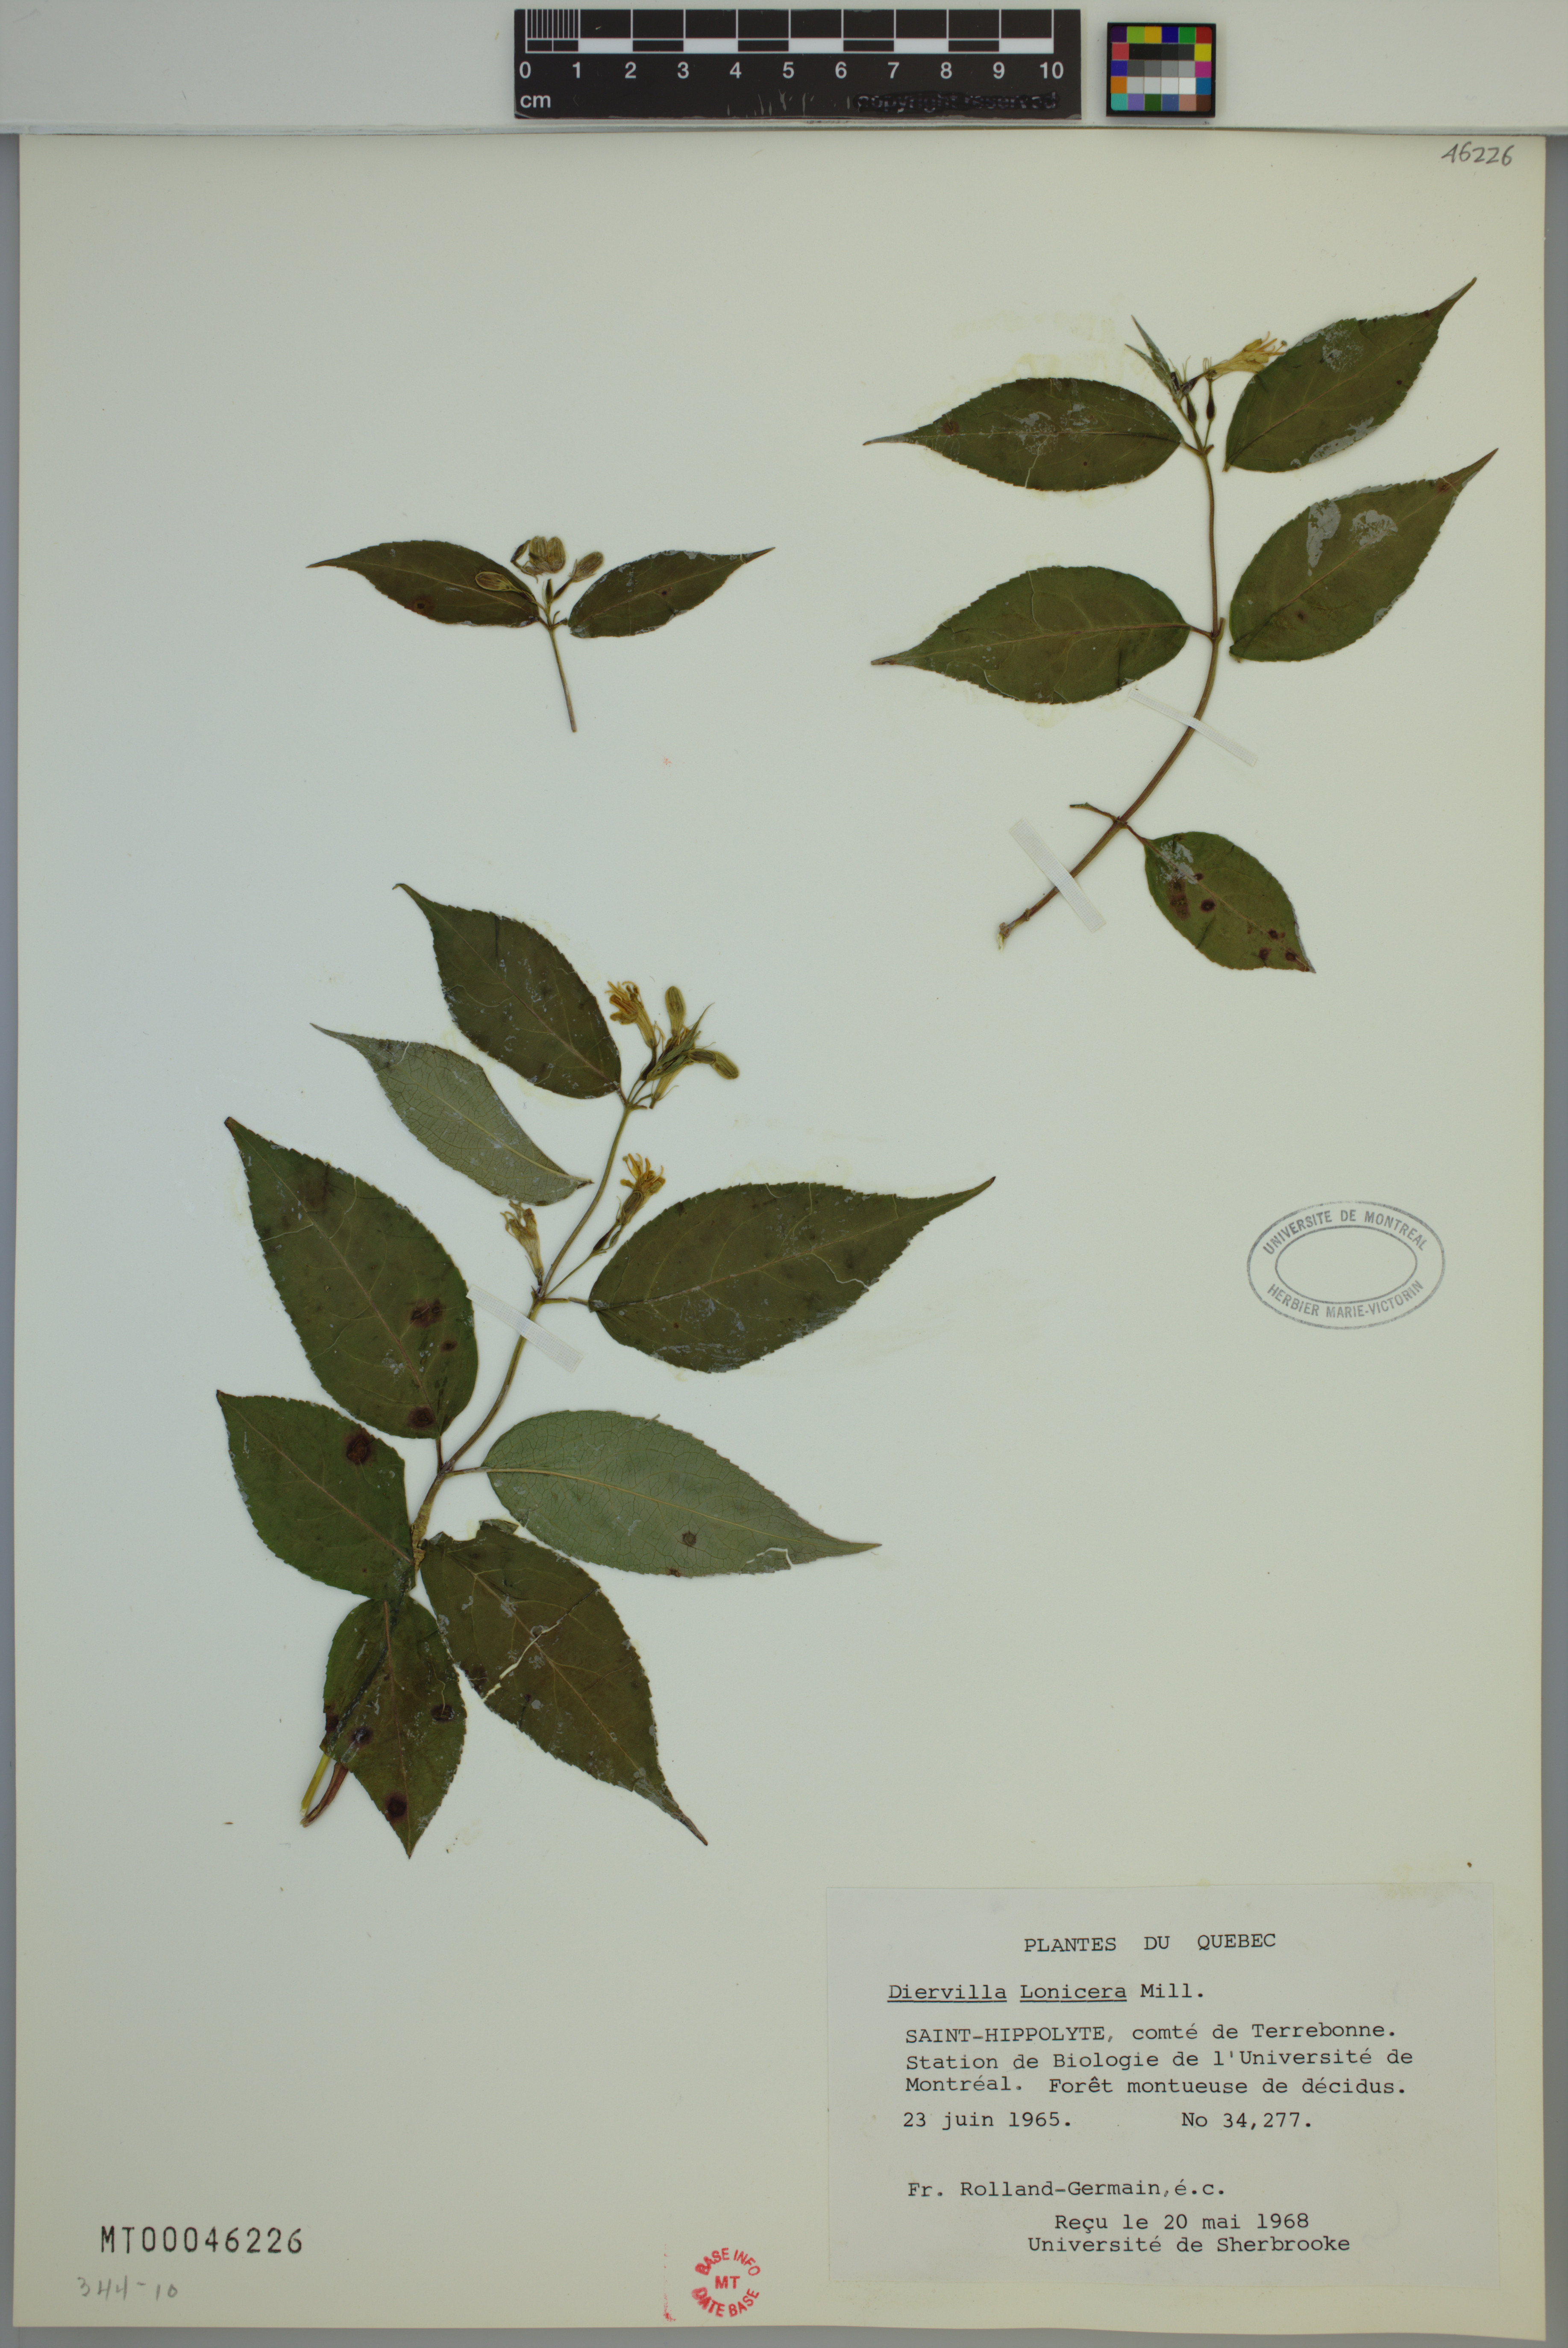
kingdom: Plantae
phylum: Tracheophyta
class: Magnoliopsida
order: Dipsacales
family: Caprifoliaceae
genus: Diervilla
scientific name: Diervilla lonicera
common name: Bush-honeysuckle
